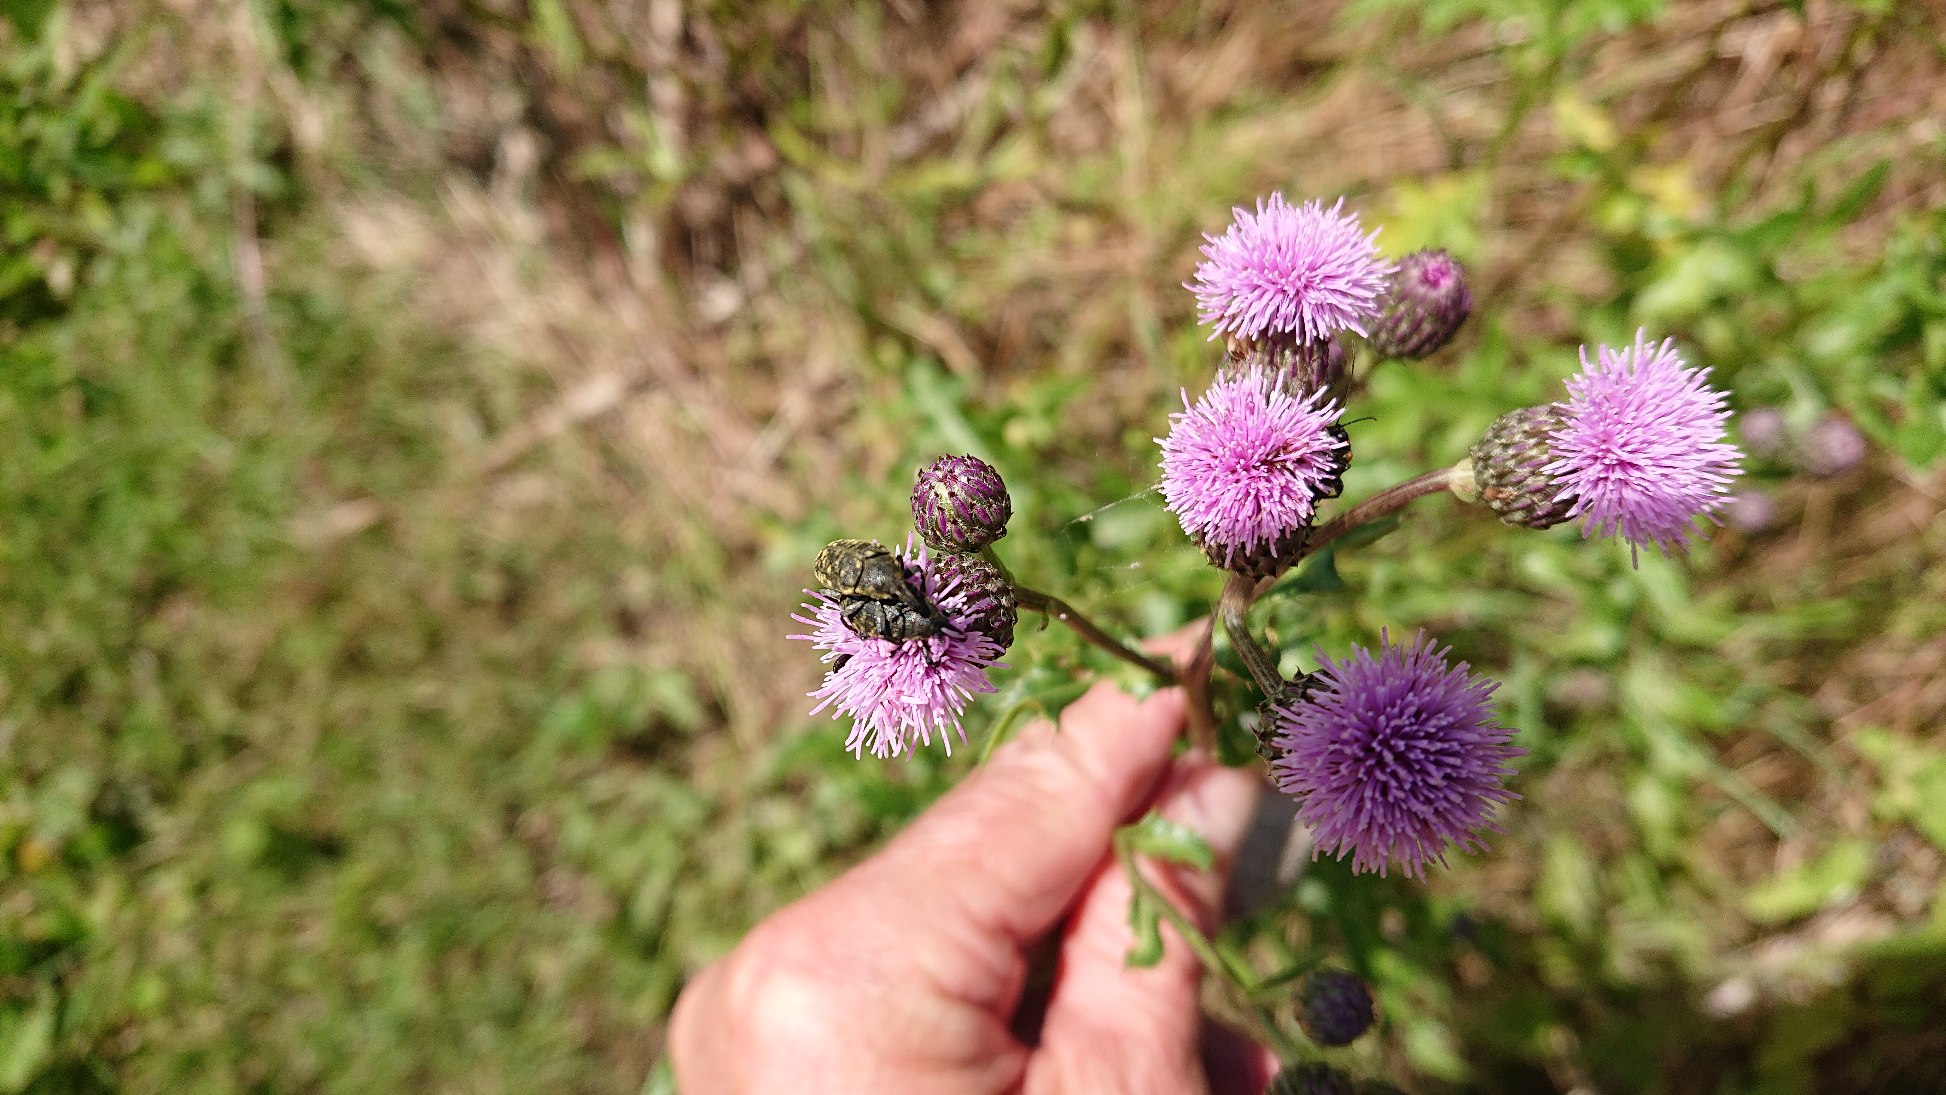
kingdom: Animalia
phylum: Arthropoda
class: Insecta
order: Coleoptera
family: Curculionidae
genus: Larinus
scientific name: Larinus turbinatus
